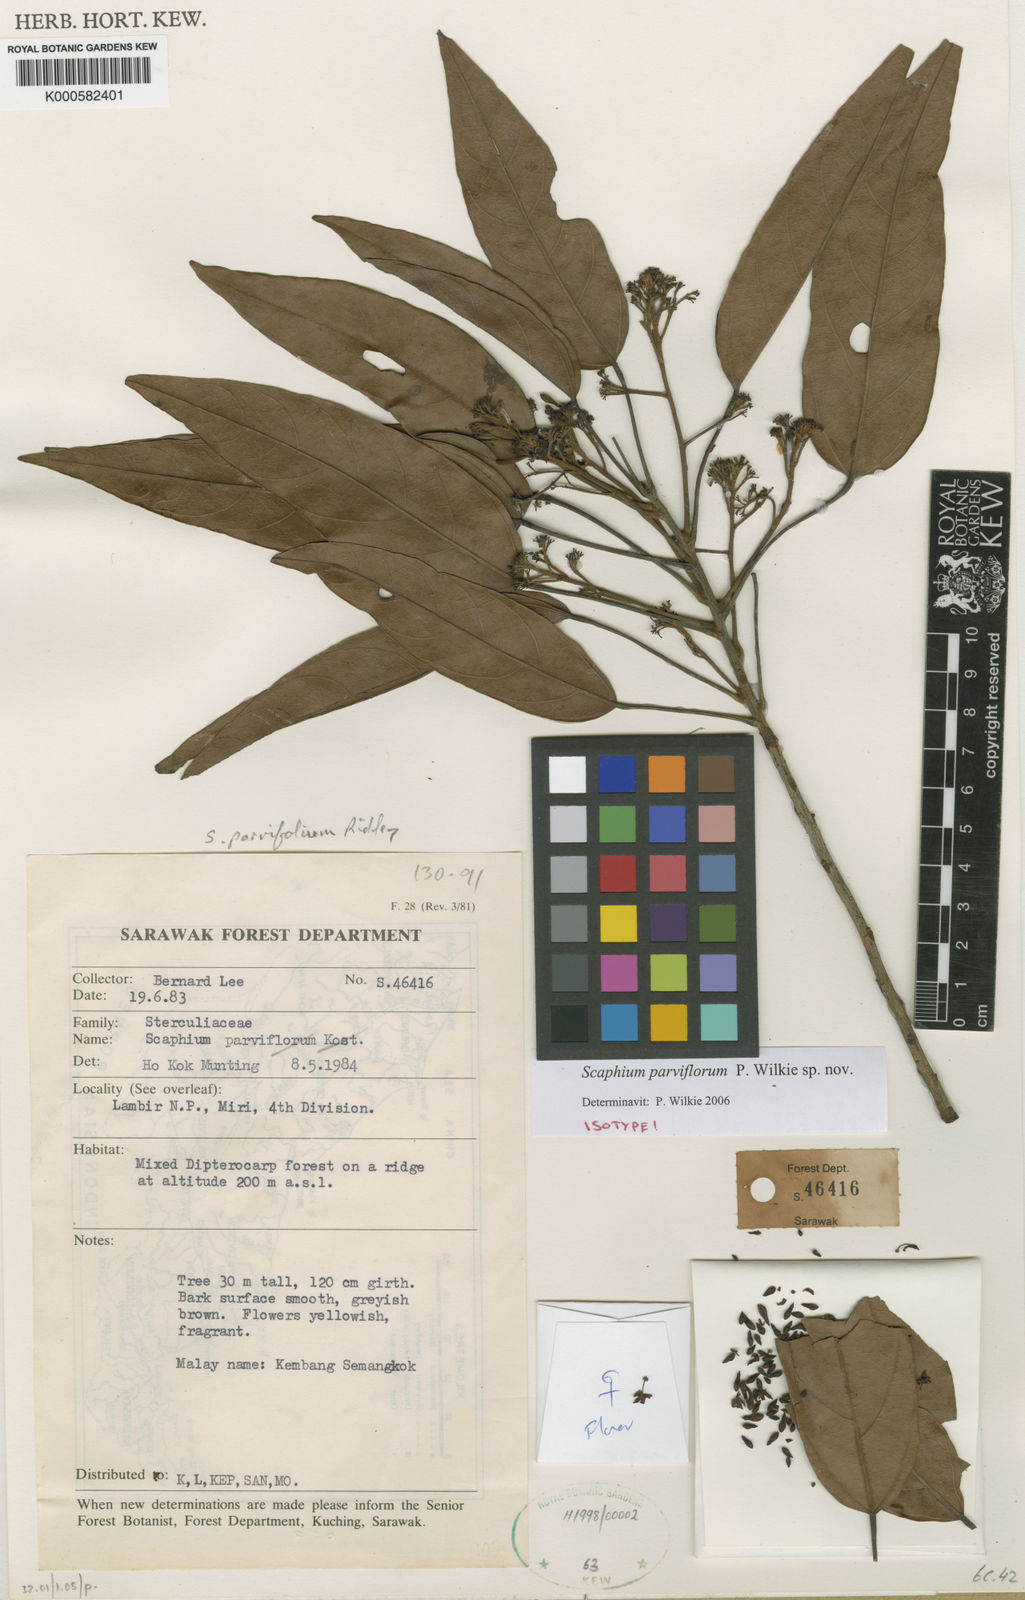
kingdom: Plantae
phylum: Tracheophyta
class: Magnoliopsida
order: Malvales
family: Malvaceae
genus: Scaphium
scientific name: Scaphium parviflorum
